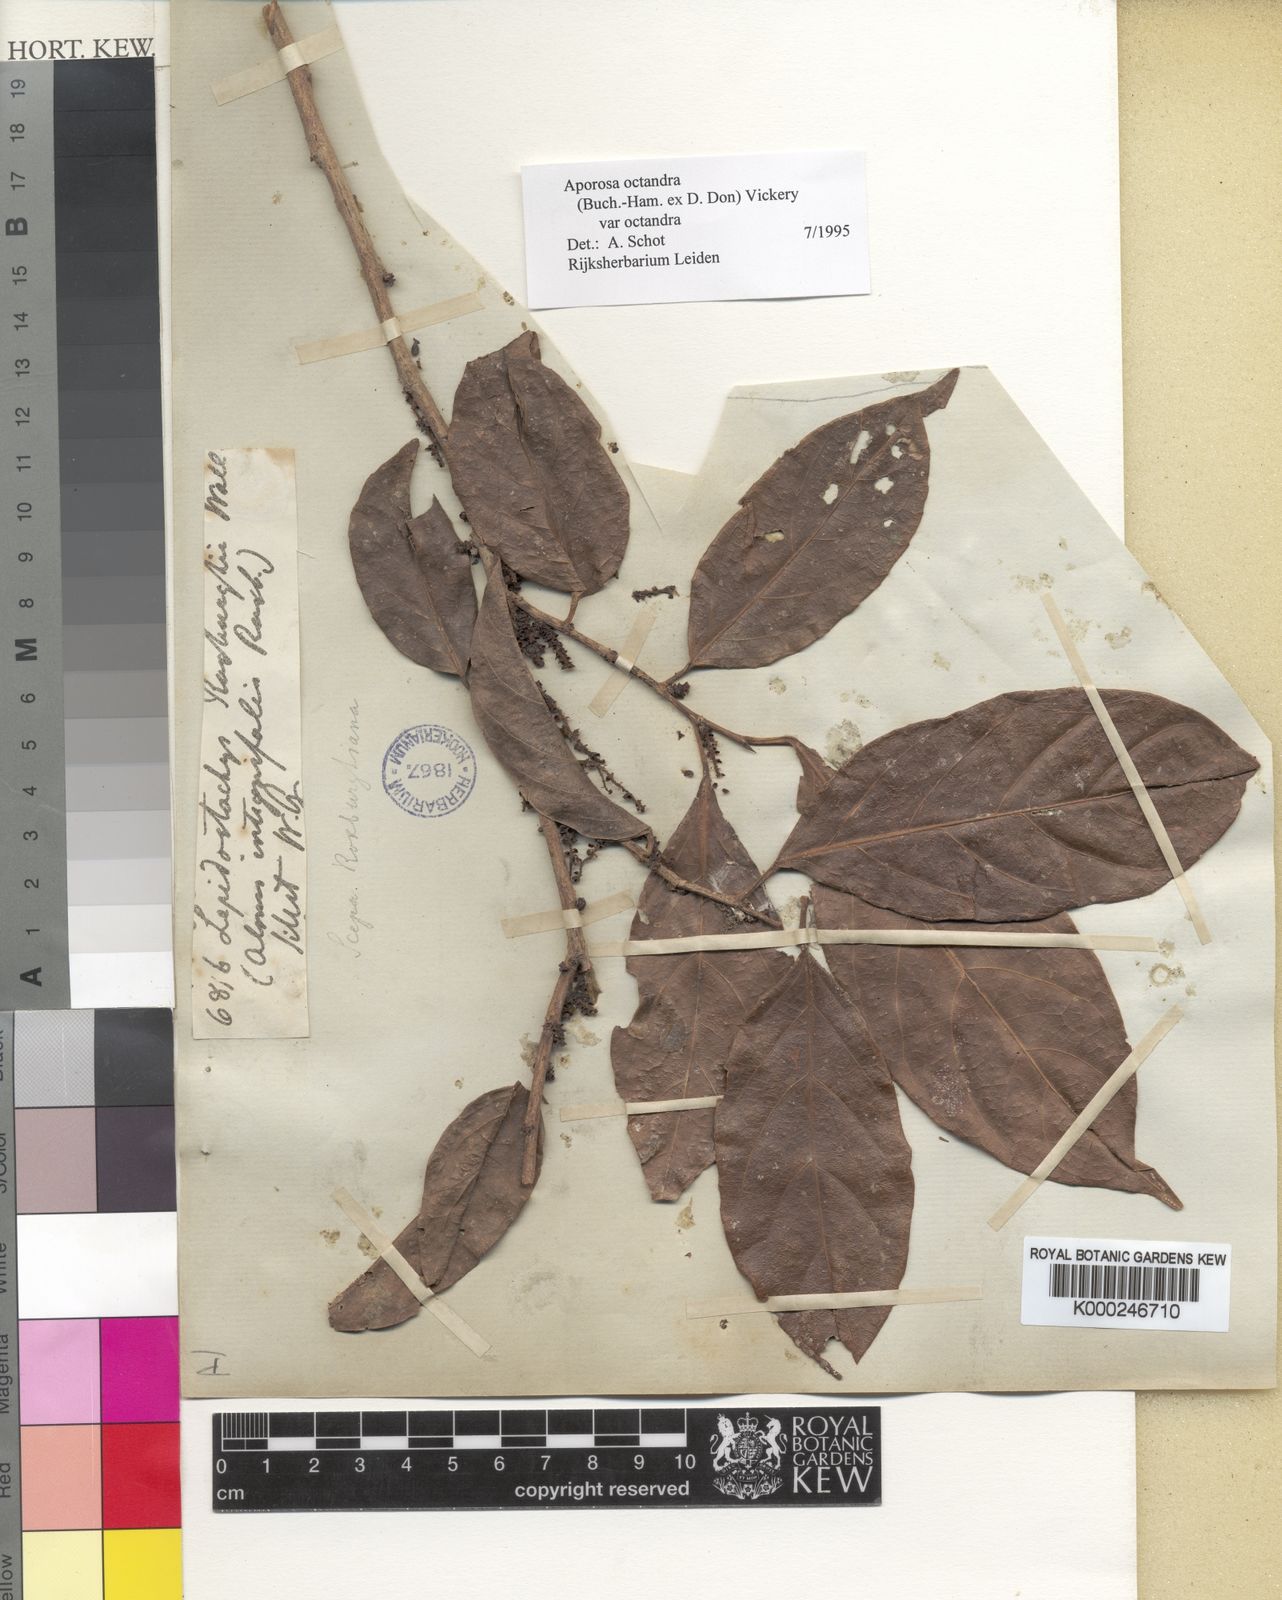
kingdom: Plantae
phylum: Tracheophyta
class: Magnoliopsida
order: Malpighiales
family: Phyllanthaceae
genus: Aporosa
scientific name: Aporosa octandra
